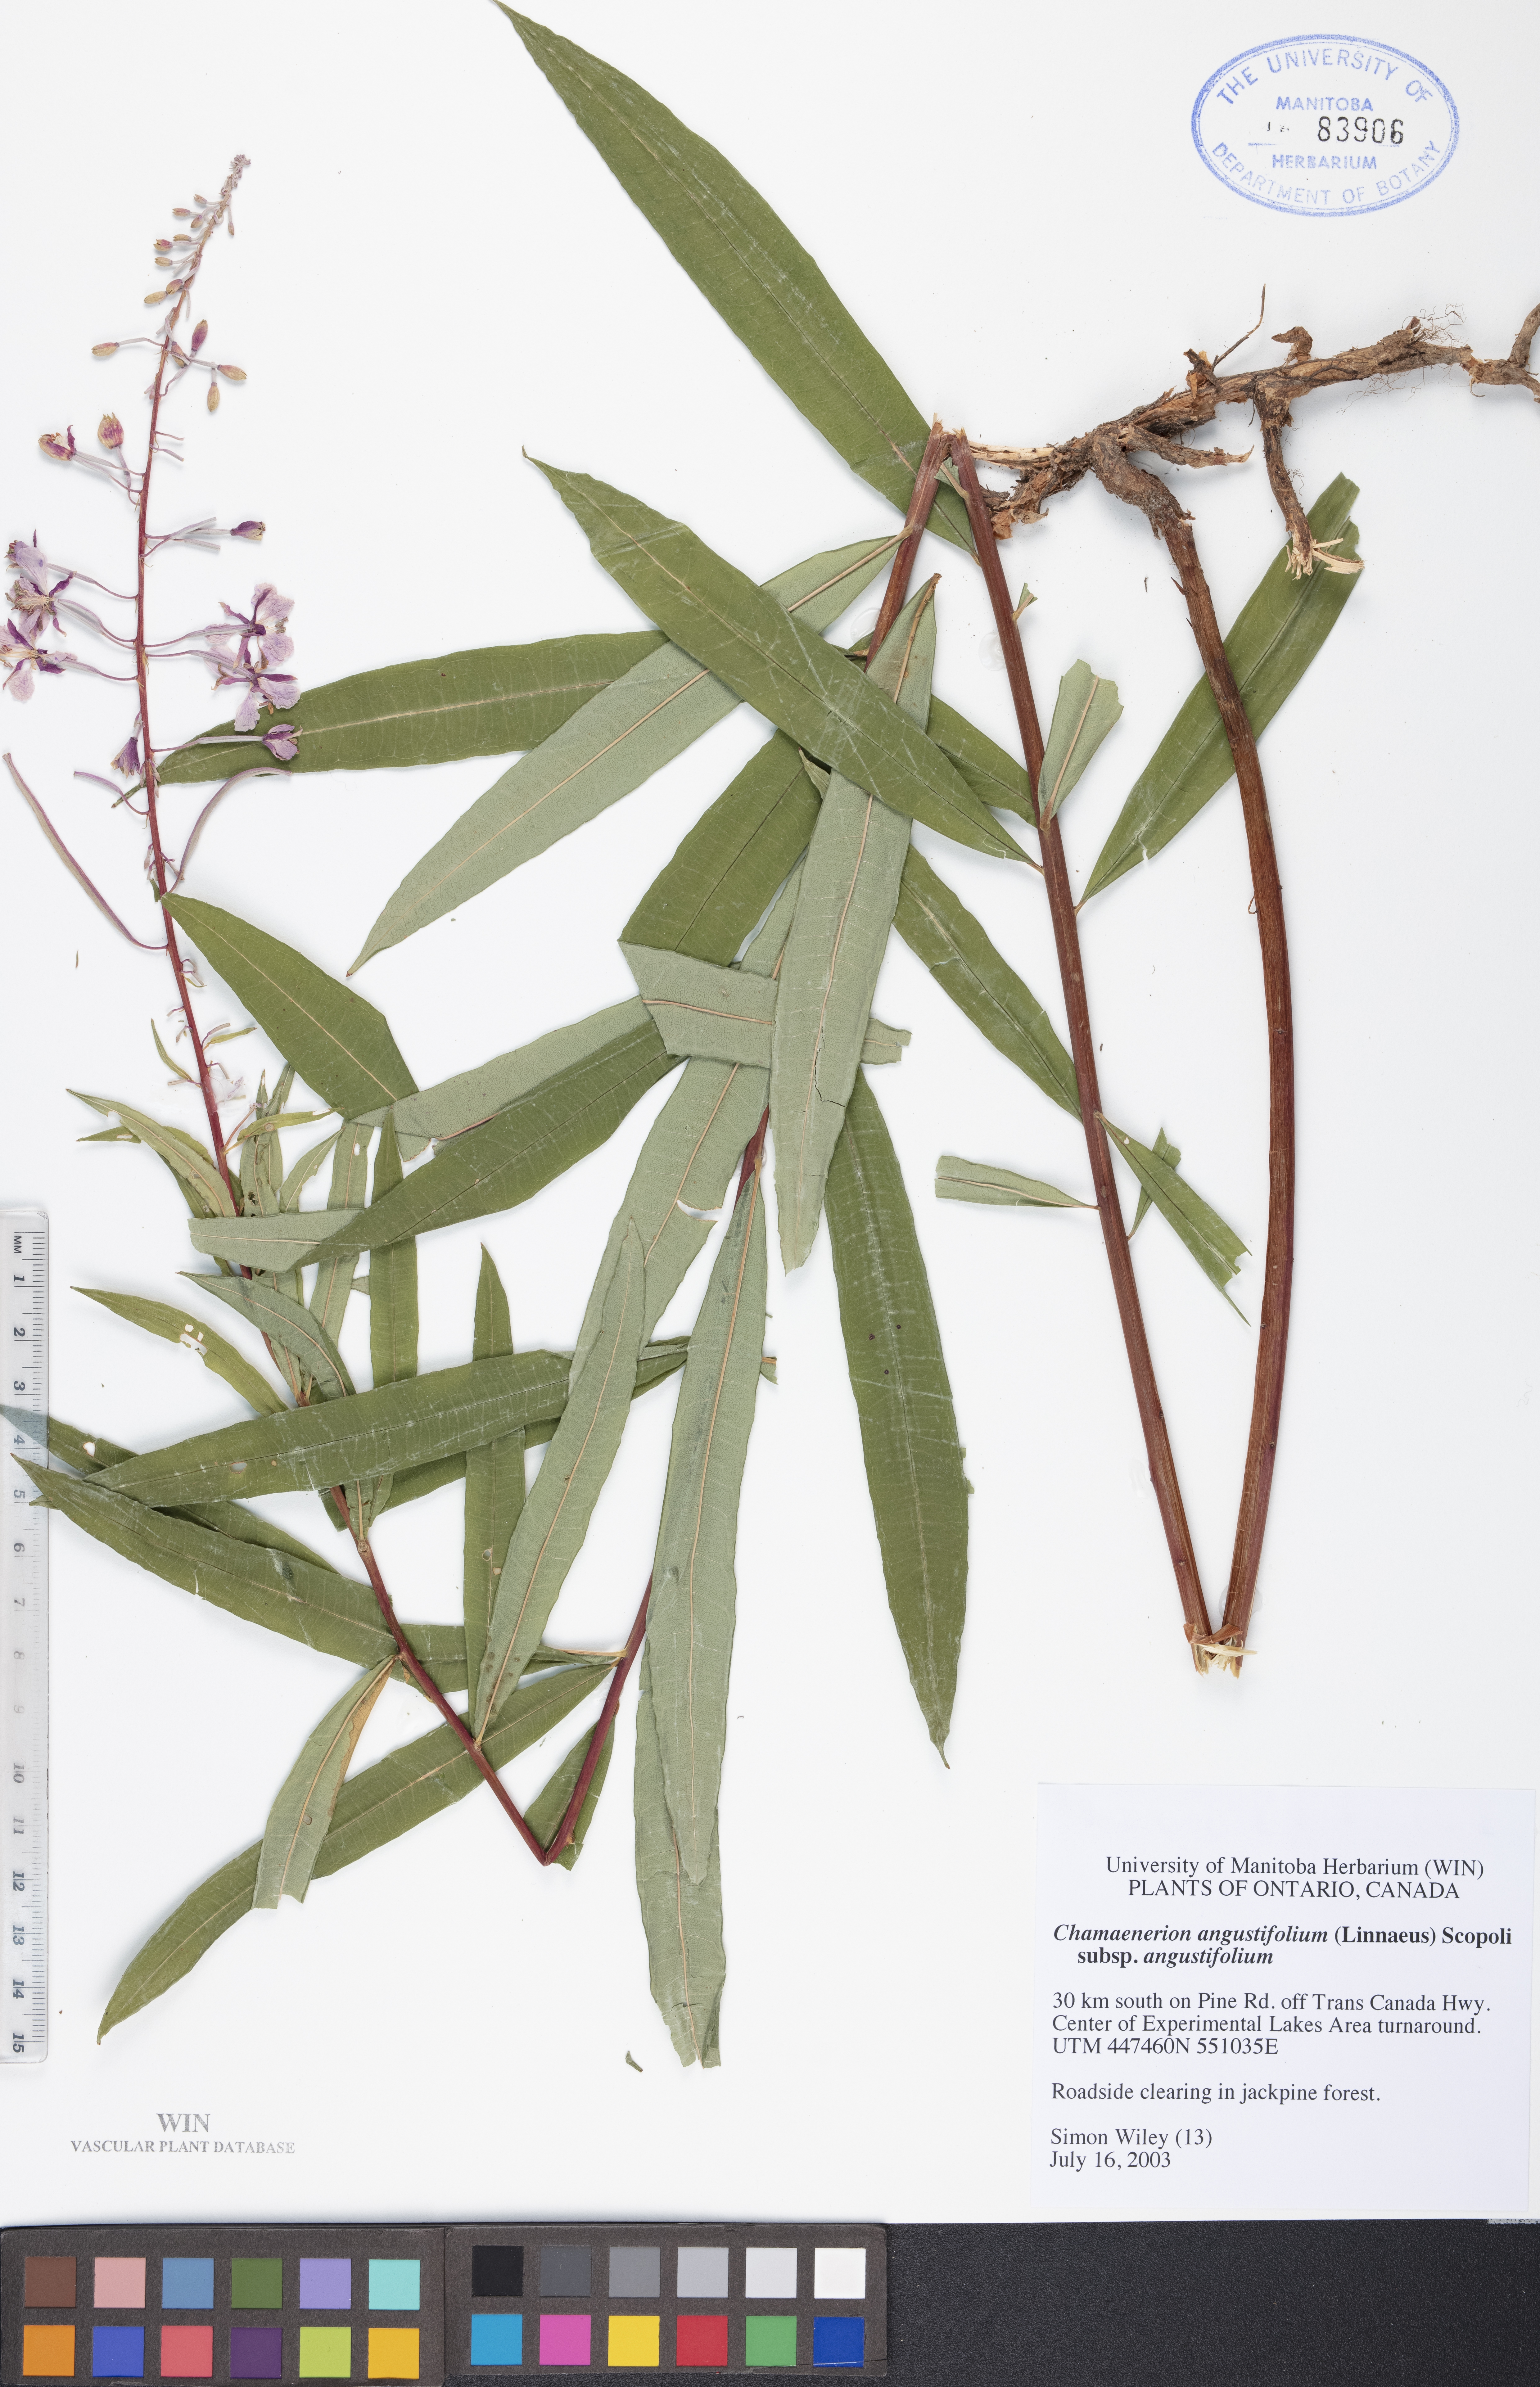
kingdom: Plantae
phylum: Tracheophyta
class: Magnoliopsida
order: Myrtales
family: Onagraceae
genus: Chamaenerion
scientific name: Chamaenerion angustifolium
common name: Fireweed
